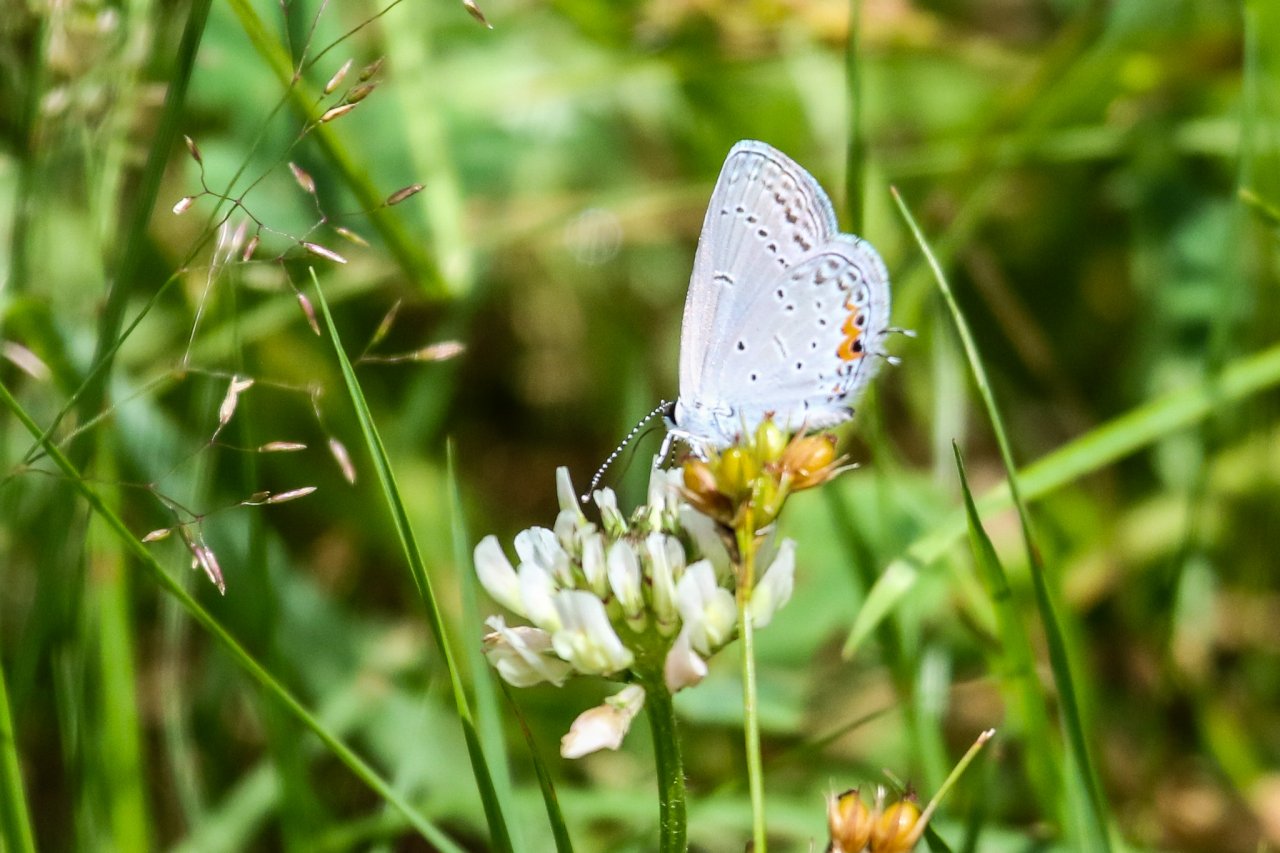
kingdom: Animalia
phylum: Arthropoda
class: Insecta
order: Lepidoptera
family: Lycaenidae
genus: Elkalyce
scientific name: Elkalyce comyntas
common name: Eastern Tailed-Blue
